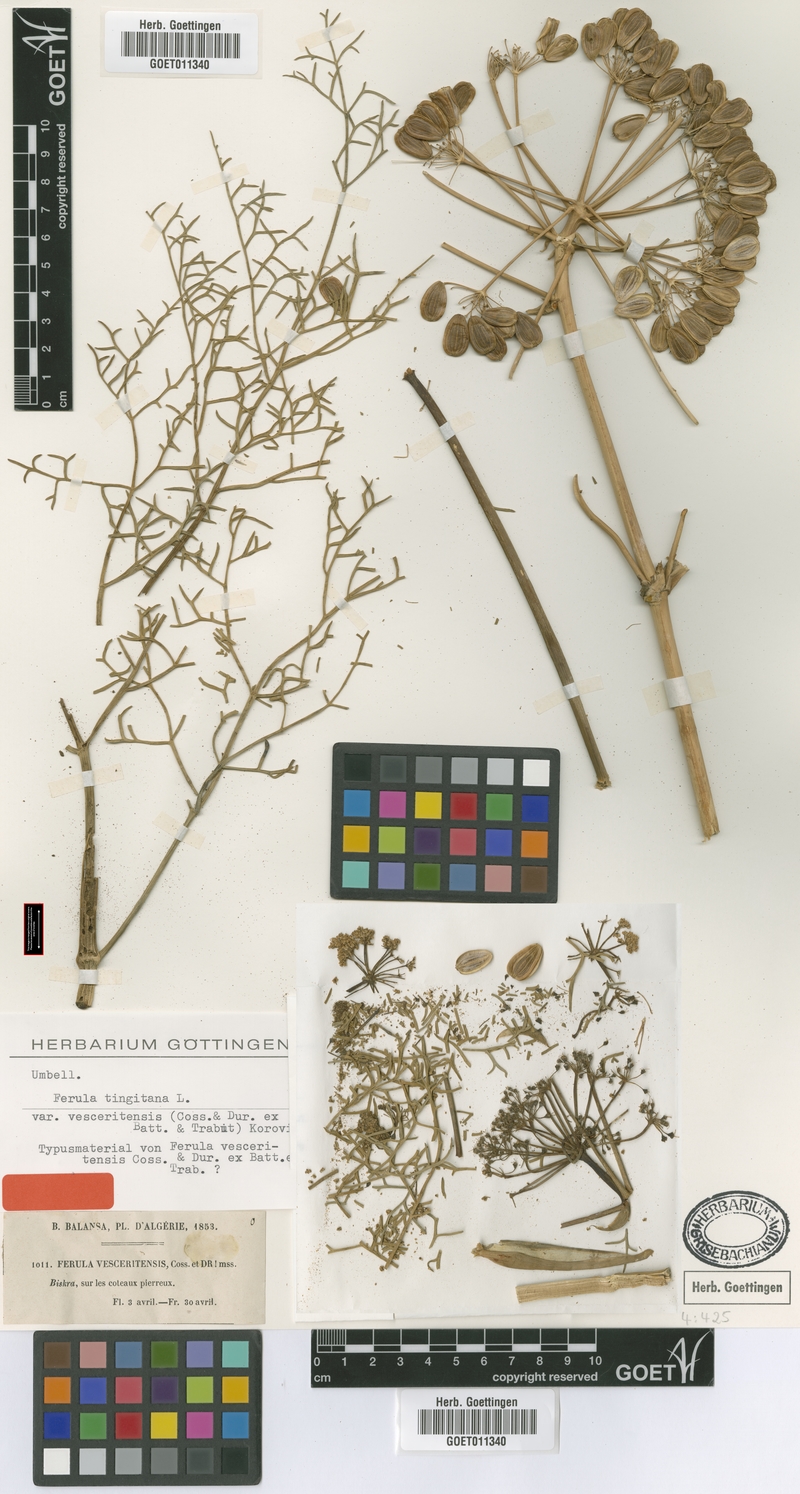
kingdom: Plantae
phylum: Tracheophyta
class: Magnoliopsida
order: Apiales
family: Apiaceae
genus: Ferula
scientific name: Ferula vesceritensis
